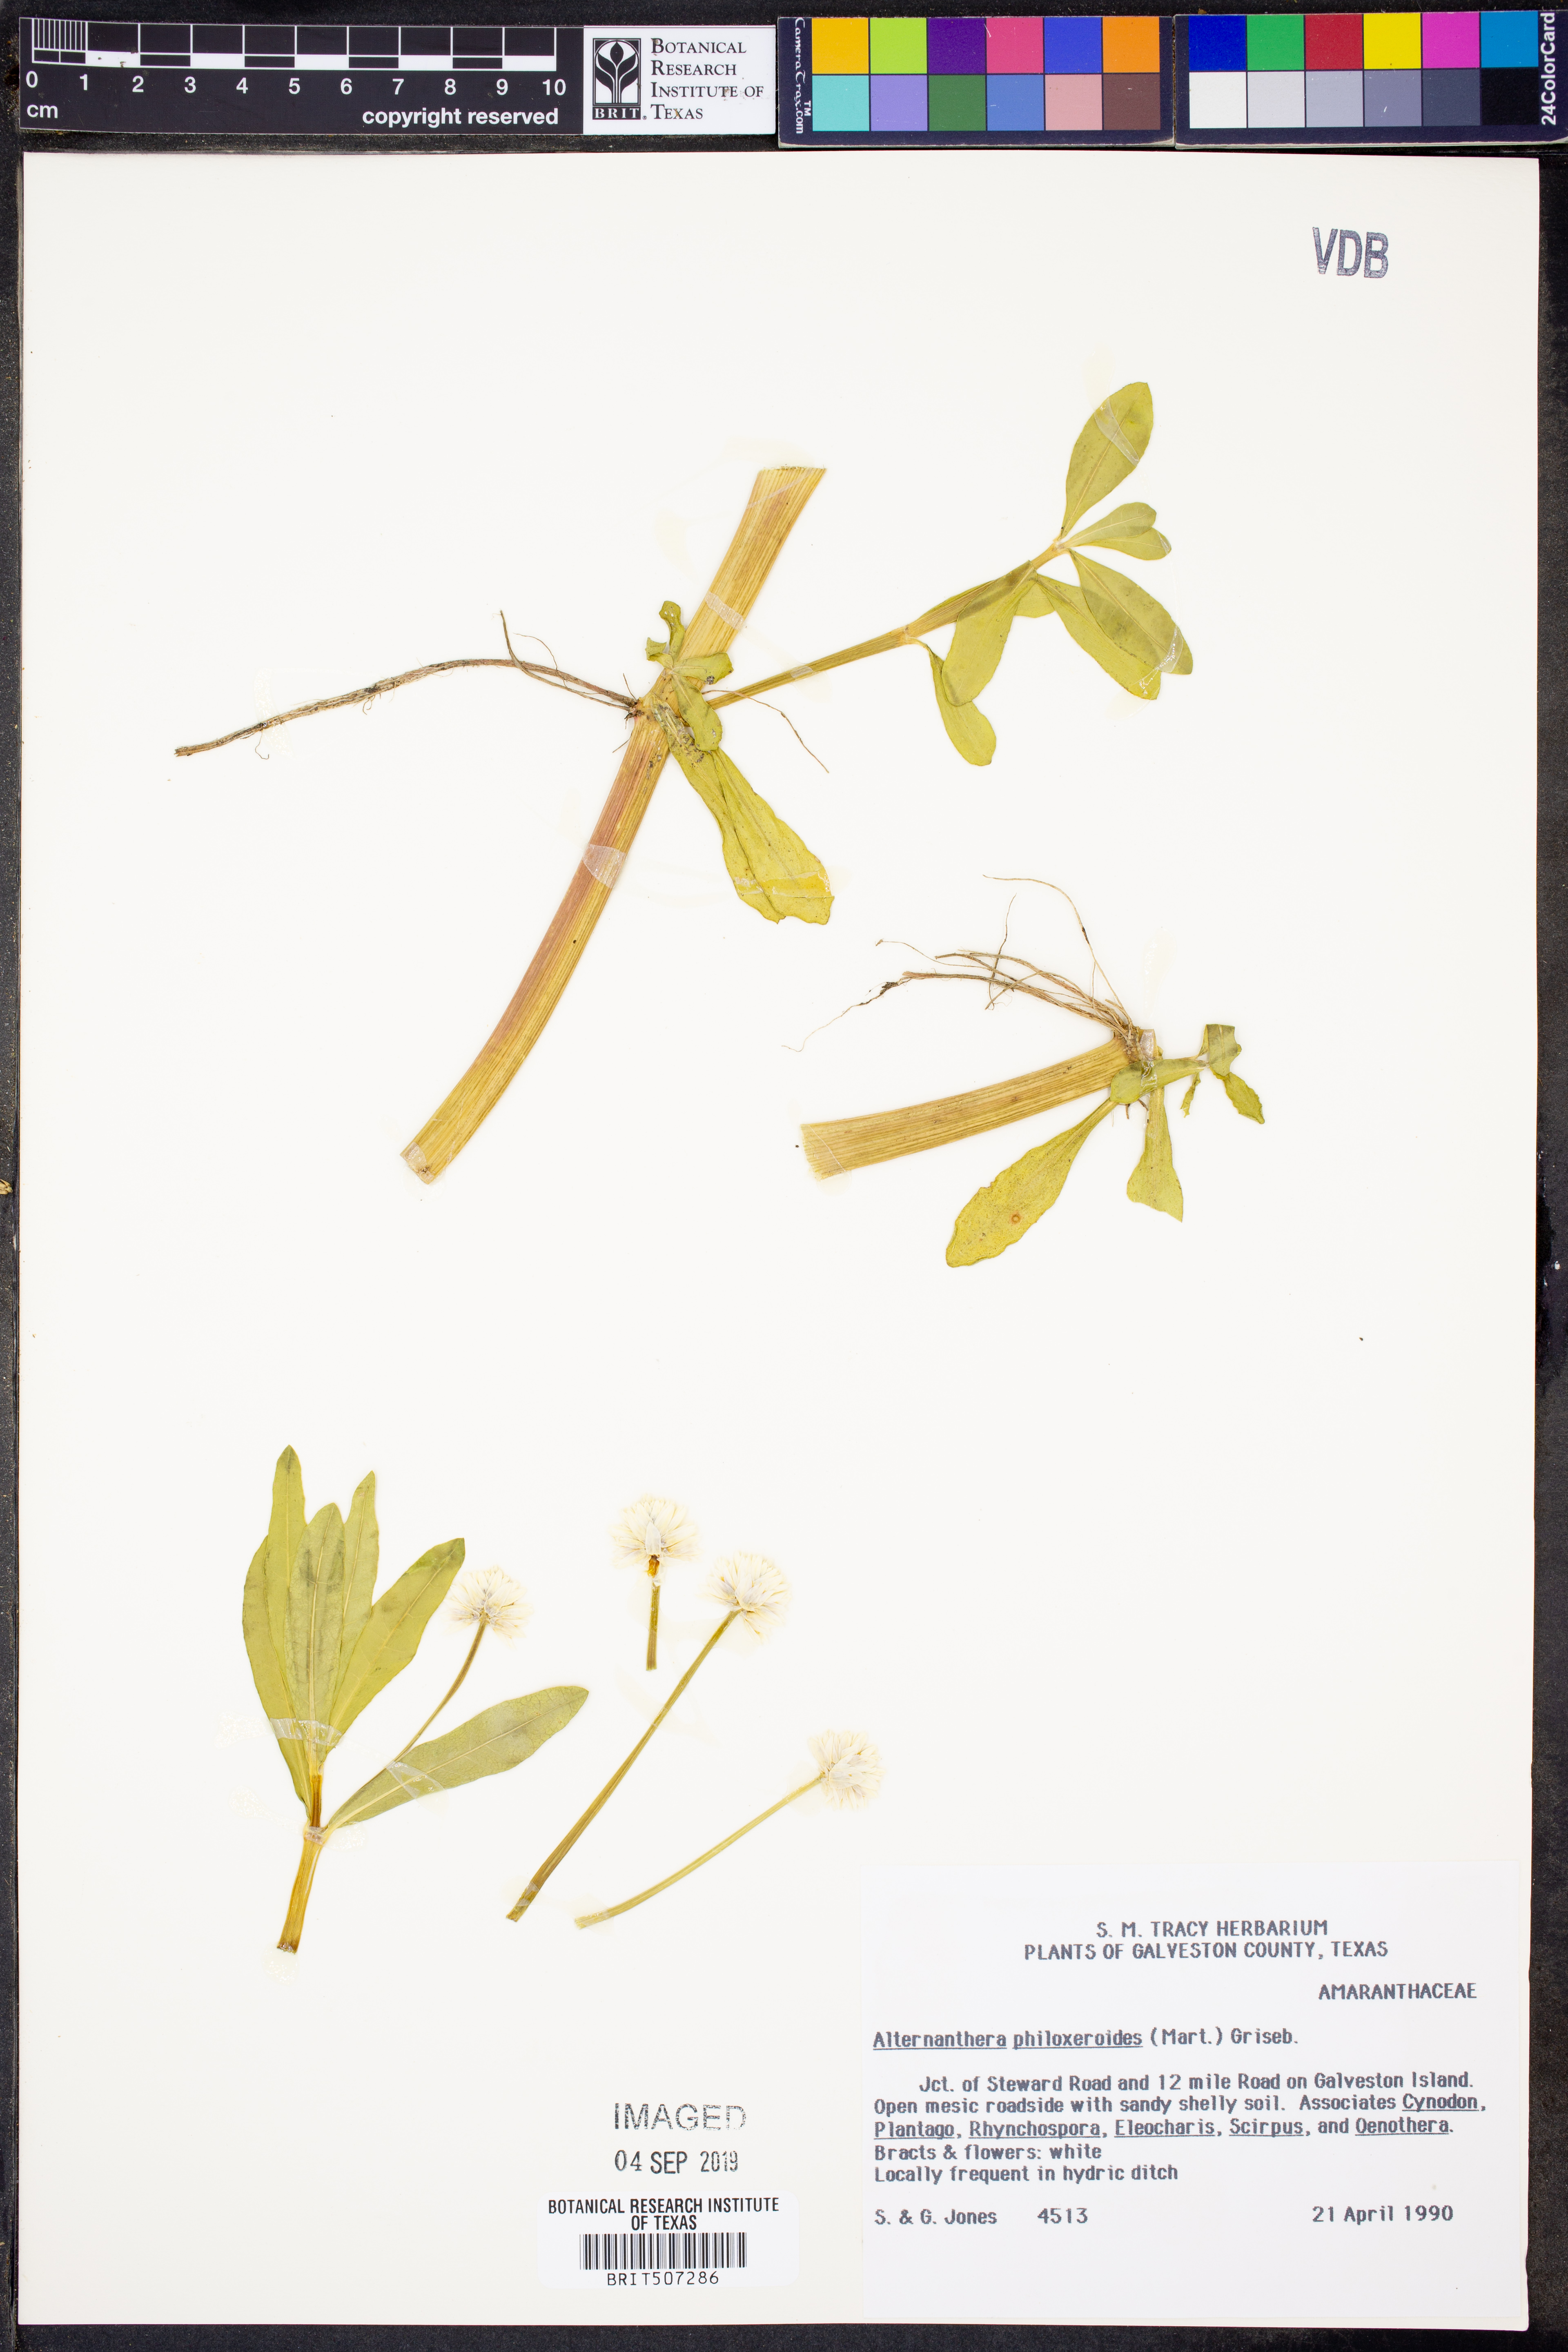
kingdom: Plantae
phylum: Tracheophyta
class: Magnoliopsida
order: Caryophyllales
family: Amaranthaceae
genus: Alternanthera
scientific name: Alternanthera philoxeroides
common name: Alligatorweed
